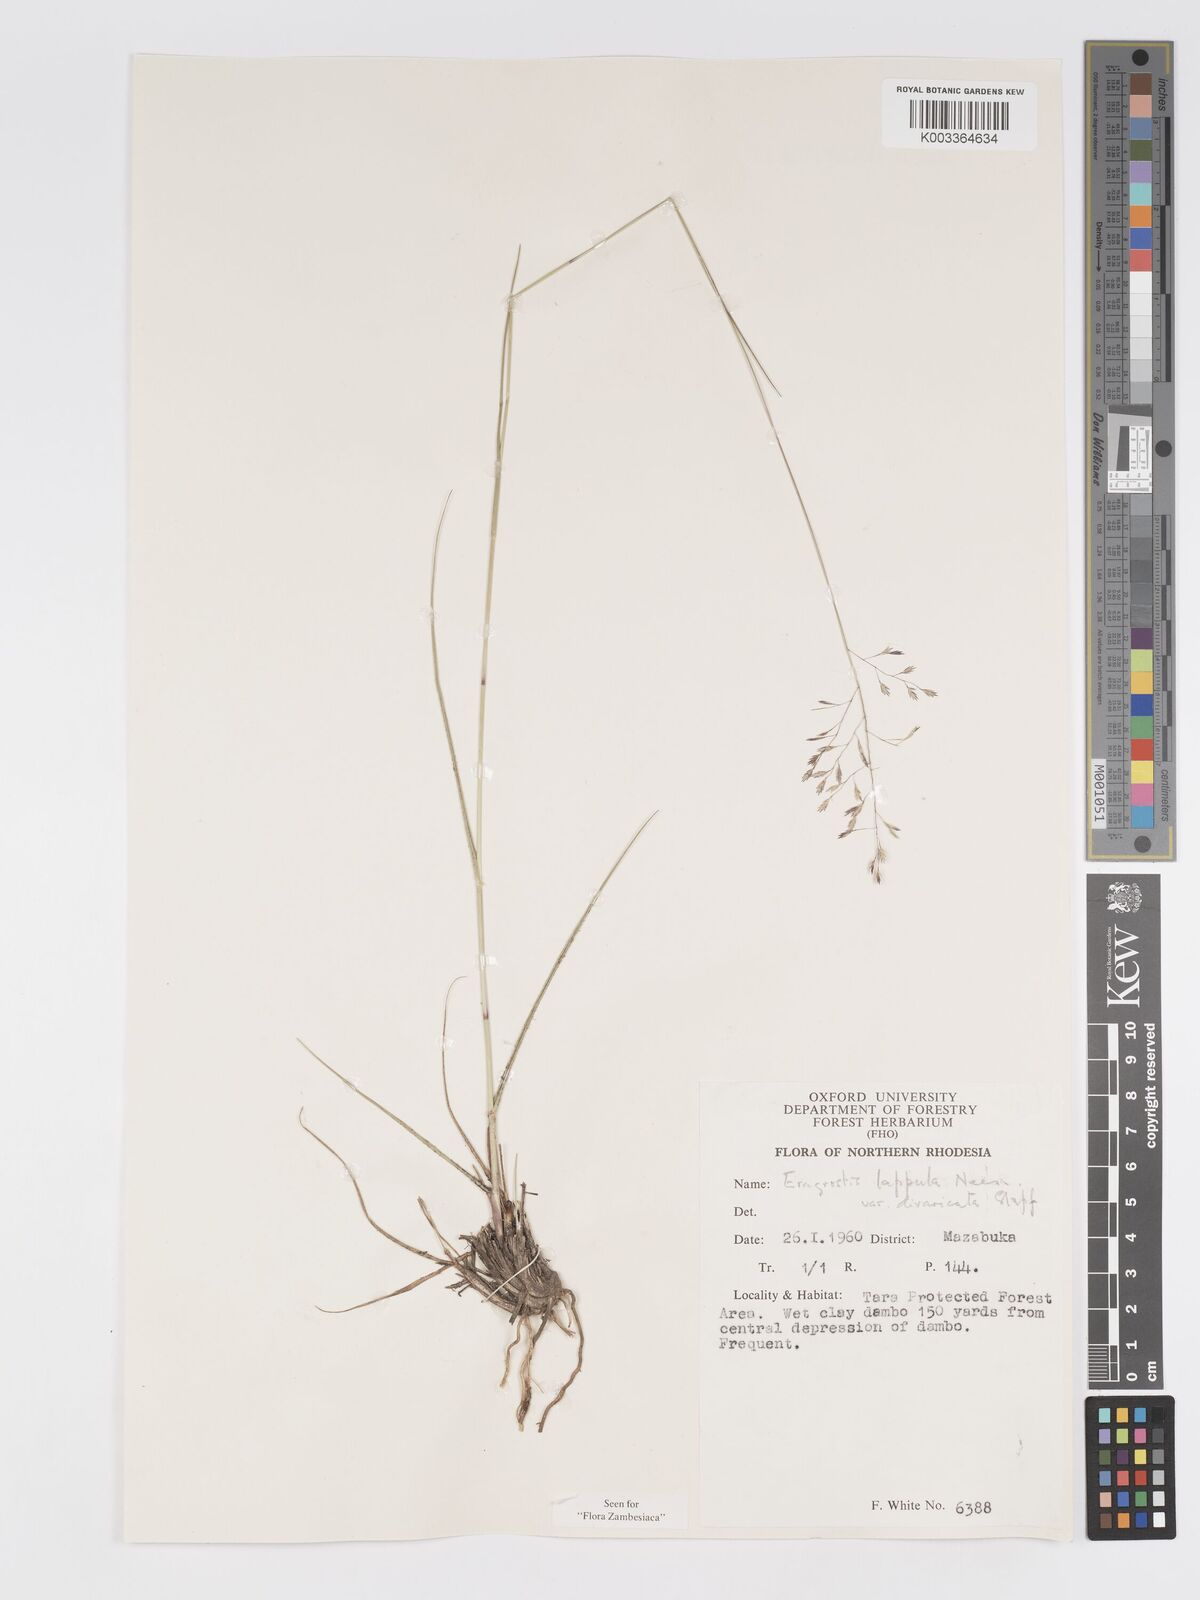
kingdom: Plantae
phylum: Tracheophyta
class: Liliopsida
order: Poales
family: Poaceae
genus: Eragrostis
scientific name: Eragrostis lappula
